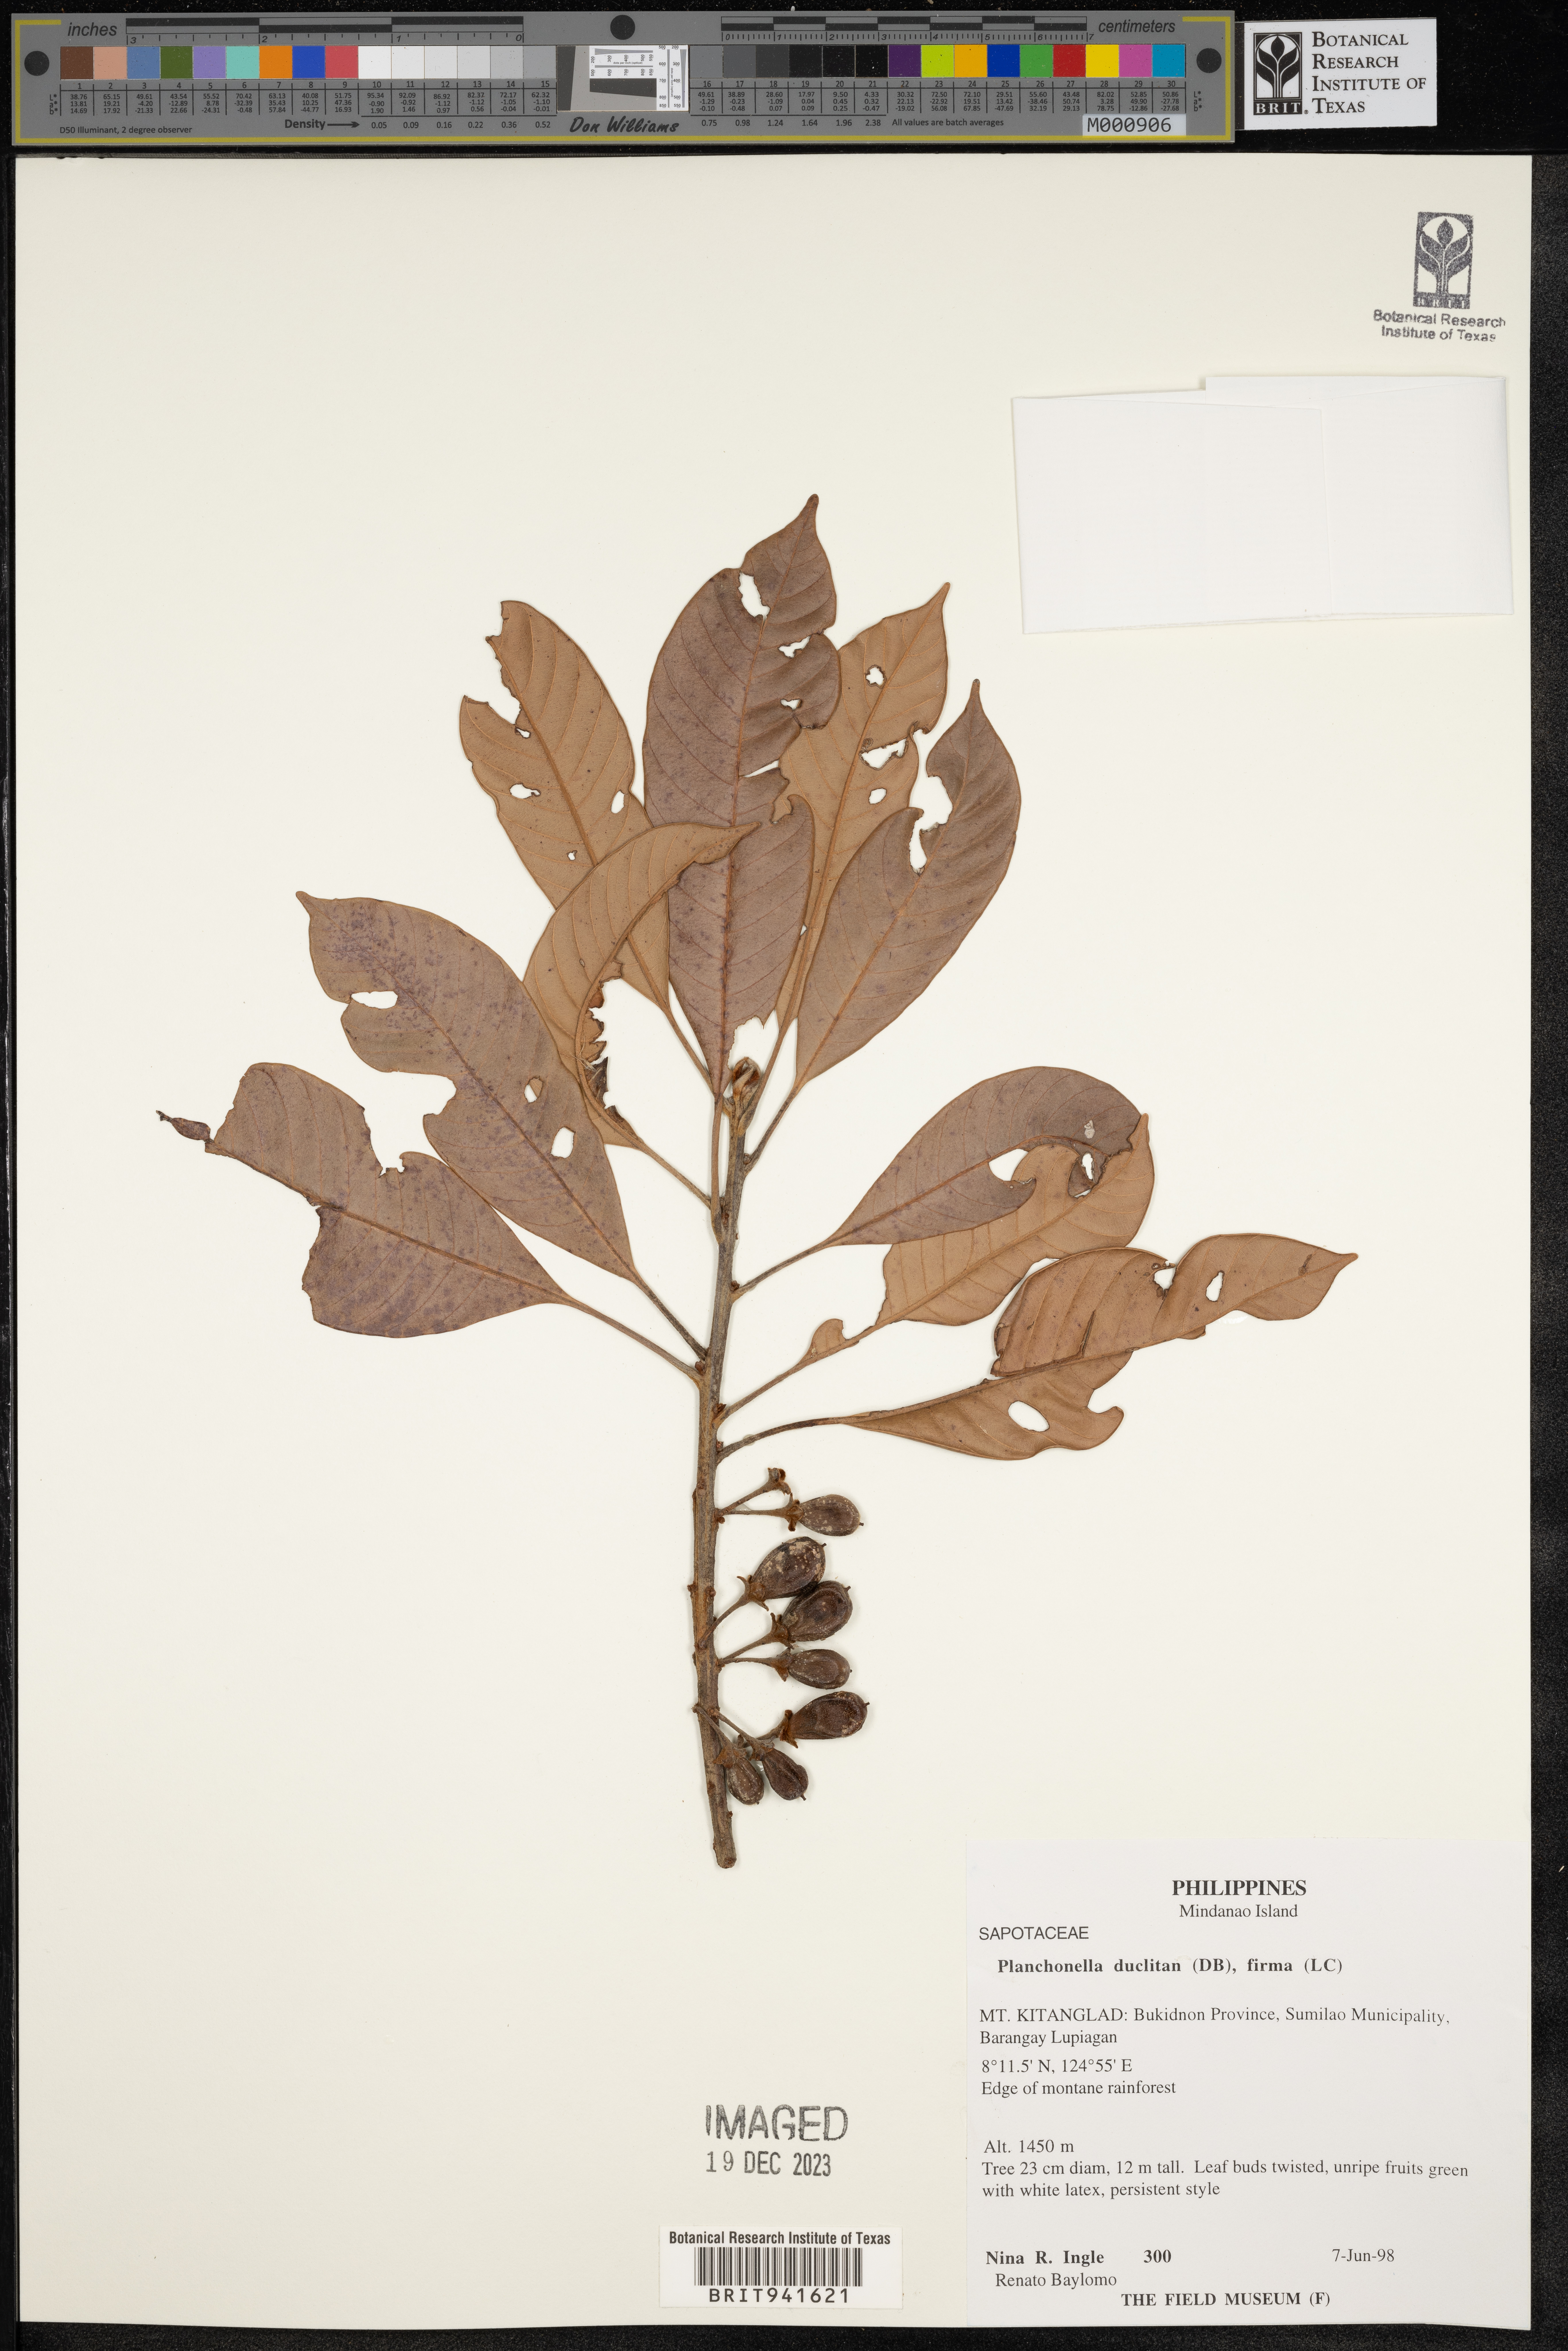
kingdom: Plantae
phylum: Tracheophyta
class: Magnoliopsida
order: Ericales
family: Sapotaceae
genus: Planchonella
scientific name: Planchonella
